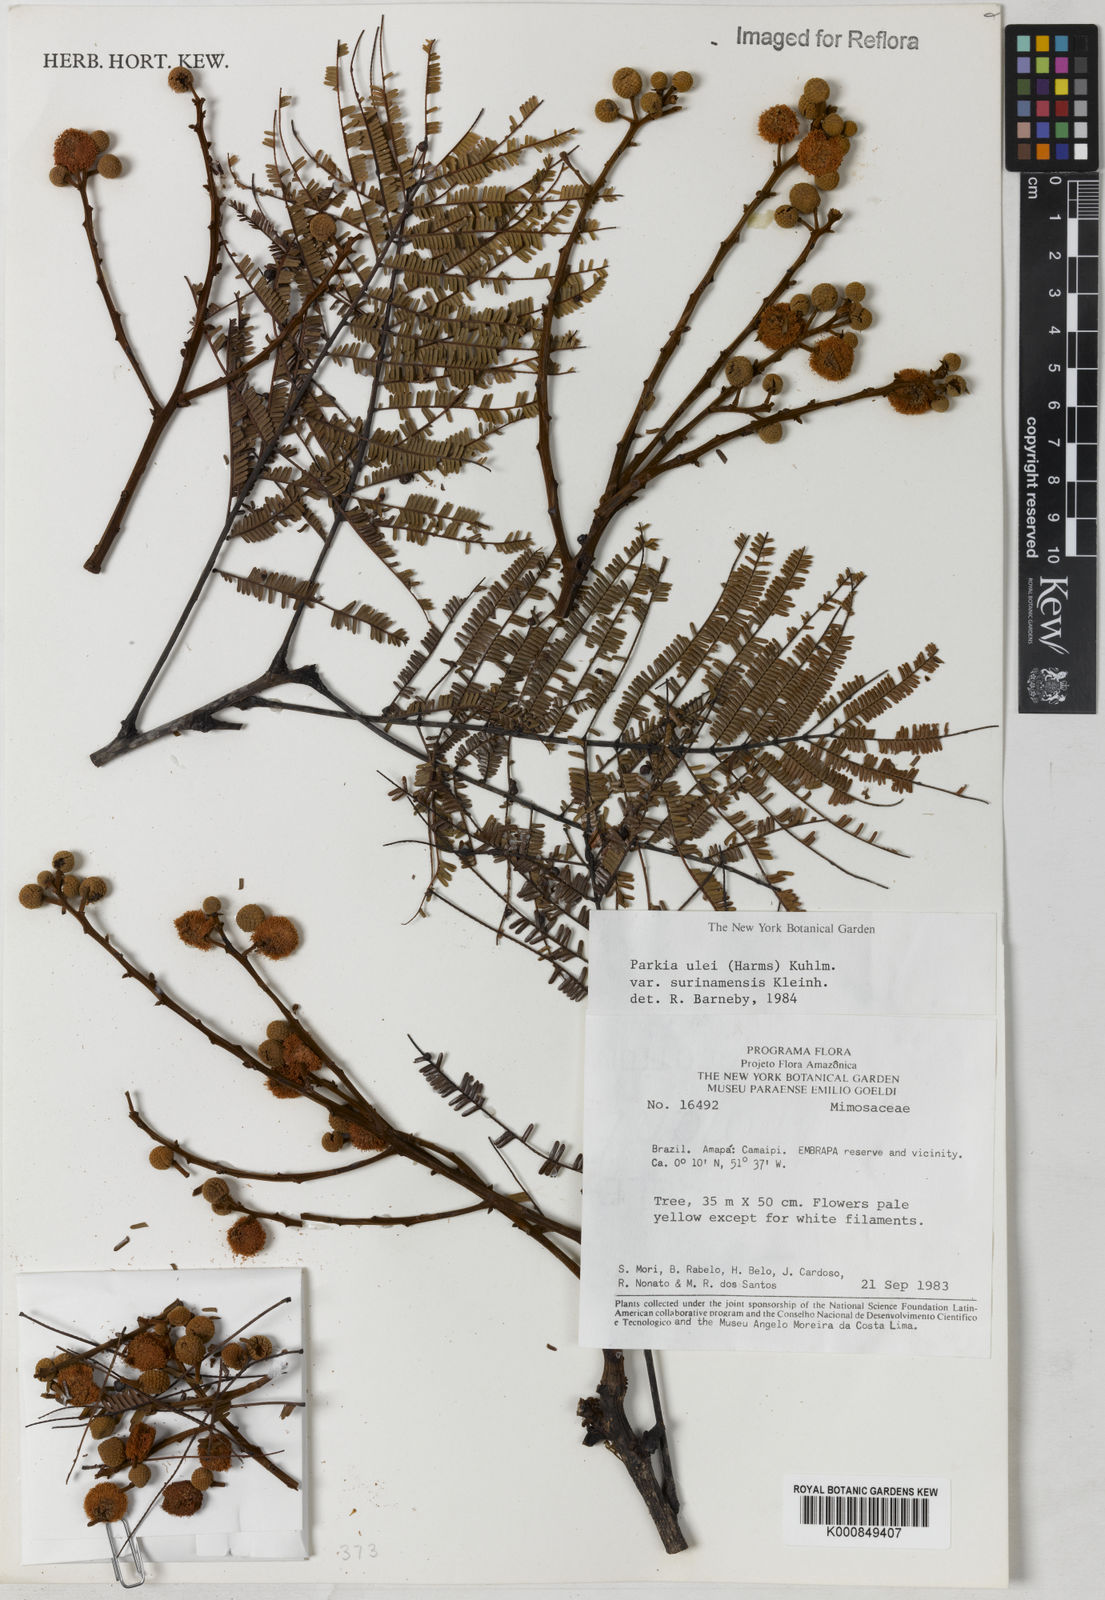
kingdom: Plantae
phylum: Tracheophyta
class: Magnoliopsida
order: Fabales
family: Fabaceae
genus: Parkia
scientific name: Parkia ulei
